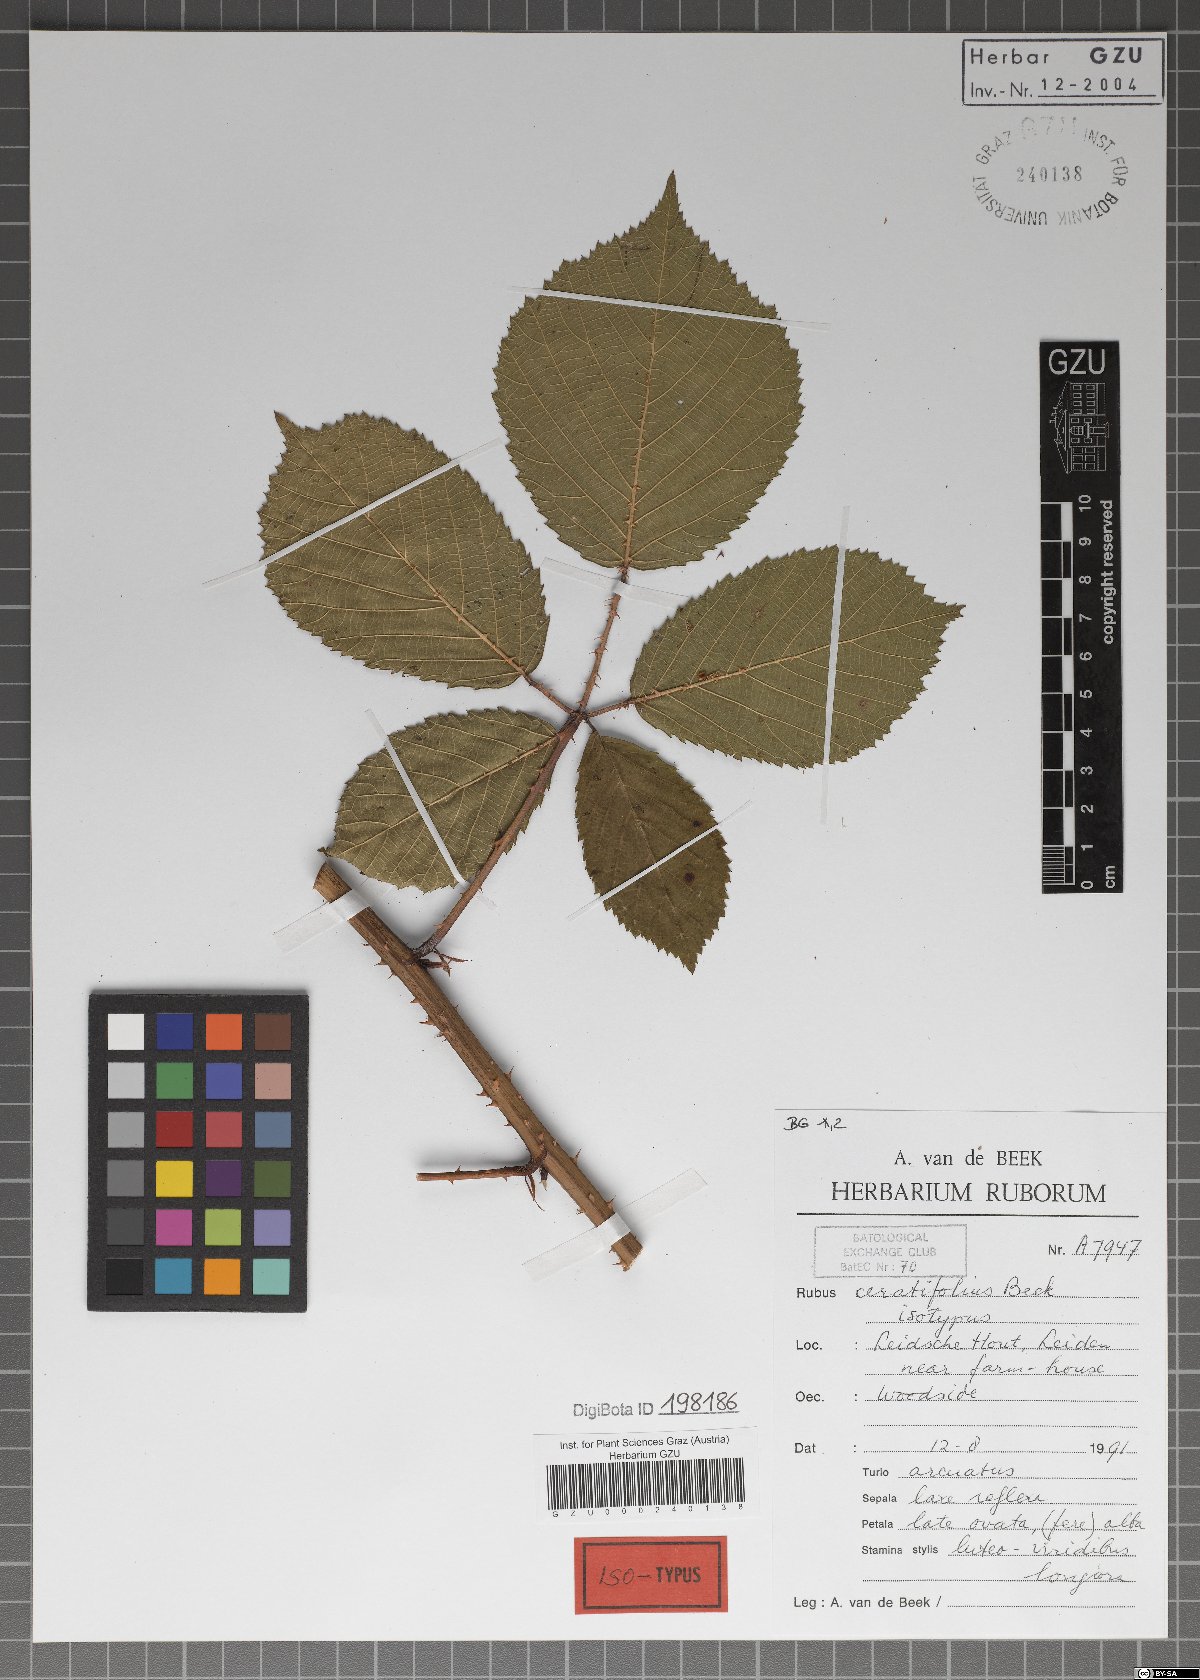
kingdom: Plantae
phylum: Tracheophyta
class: Magnoliopsida
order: Rosales
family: Rosaceae
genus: Rubus
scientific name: Rubus ceratifolius
